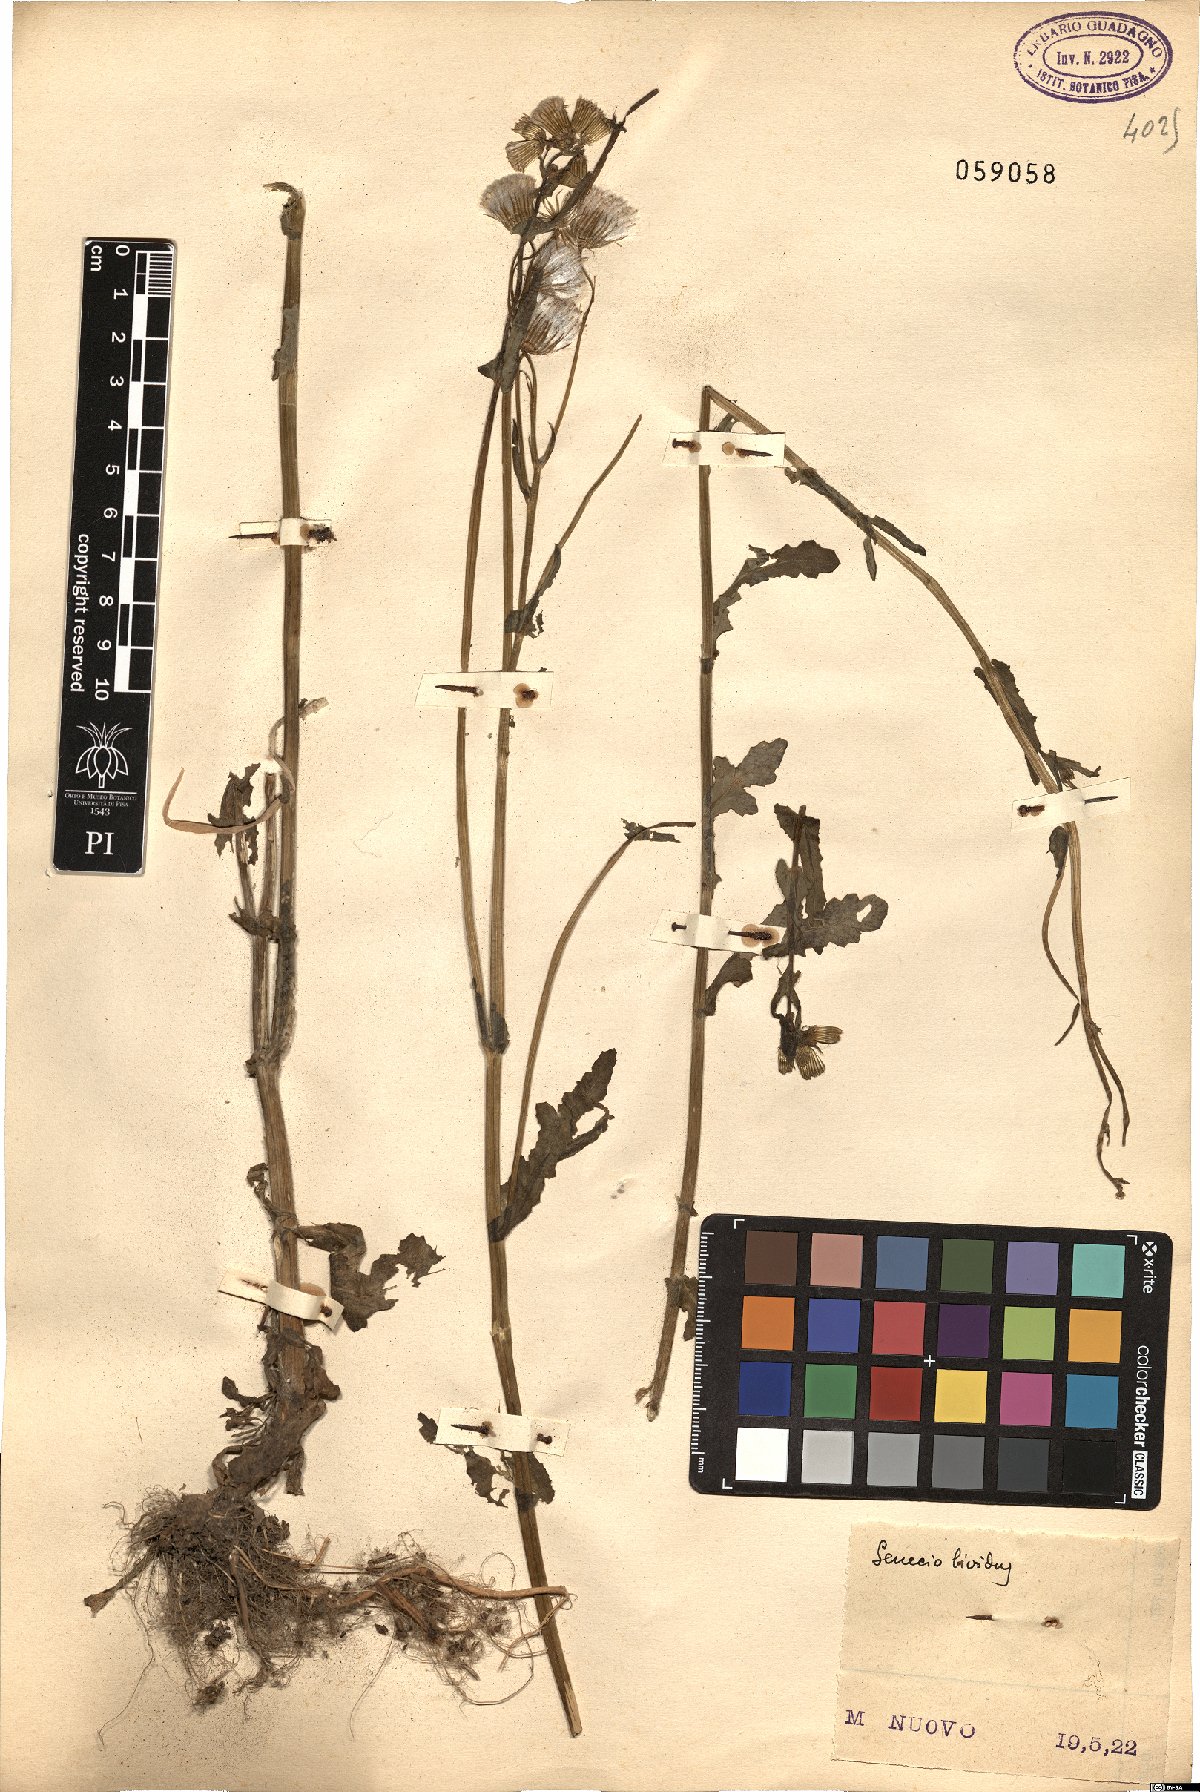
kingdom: Plantae
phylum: Tracheophyta
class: Magnoliopsida
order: Asterales
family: Asteraceae
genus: Senecio
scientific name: Senecio lividus
